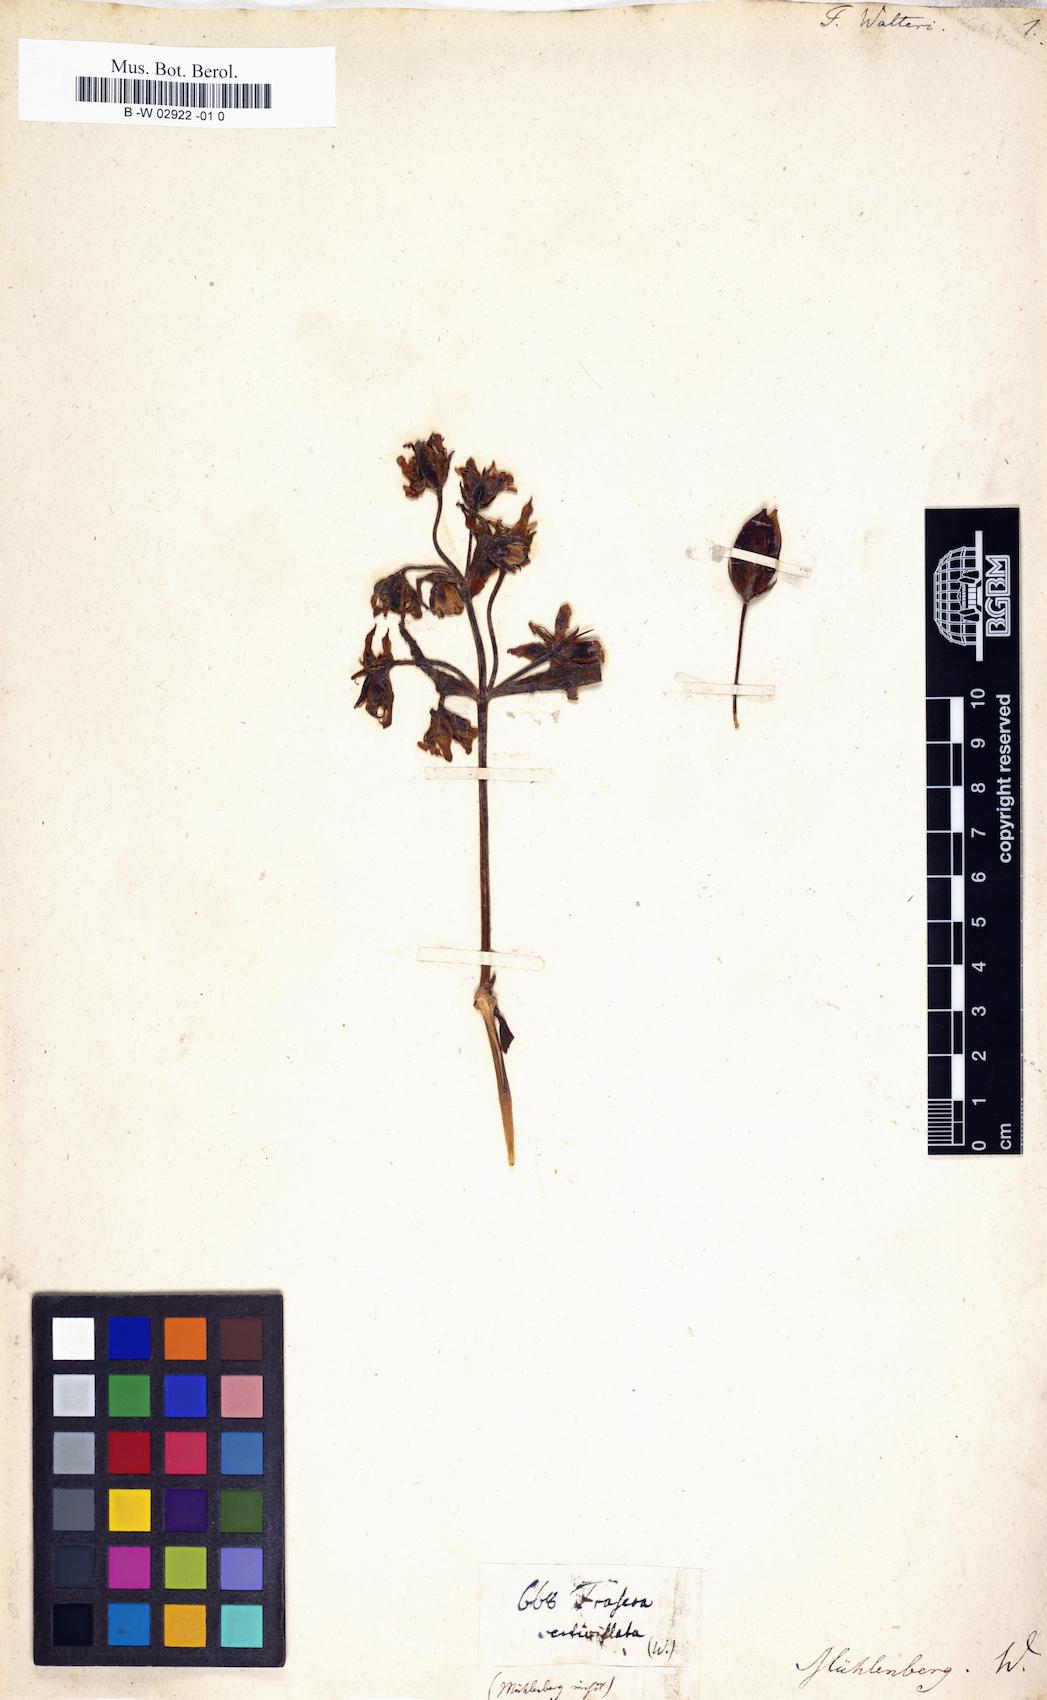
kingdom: Plantae
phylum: Tracheophyta
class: Magnoliopsida
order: Gentianales
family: Gentianaceae
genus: Frasera
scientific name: Frasera carolinensis
